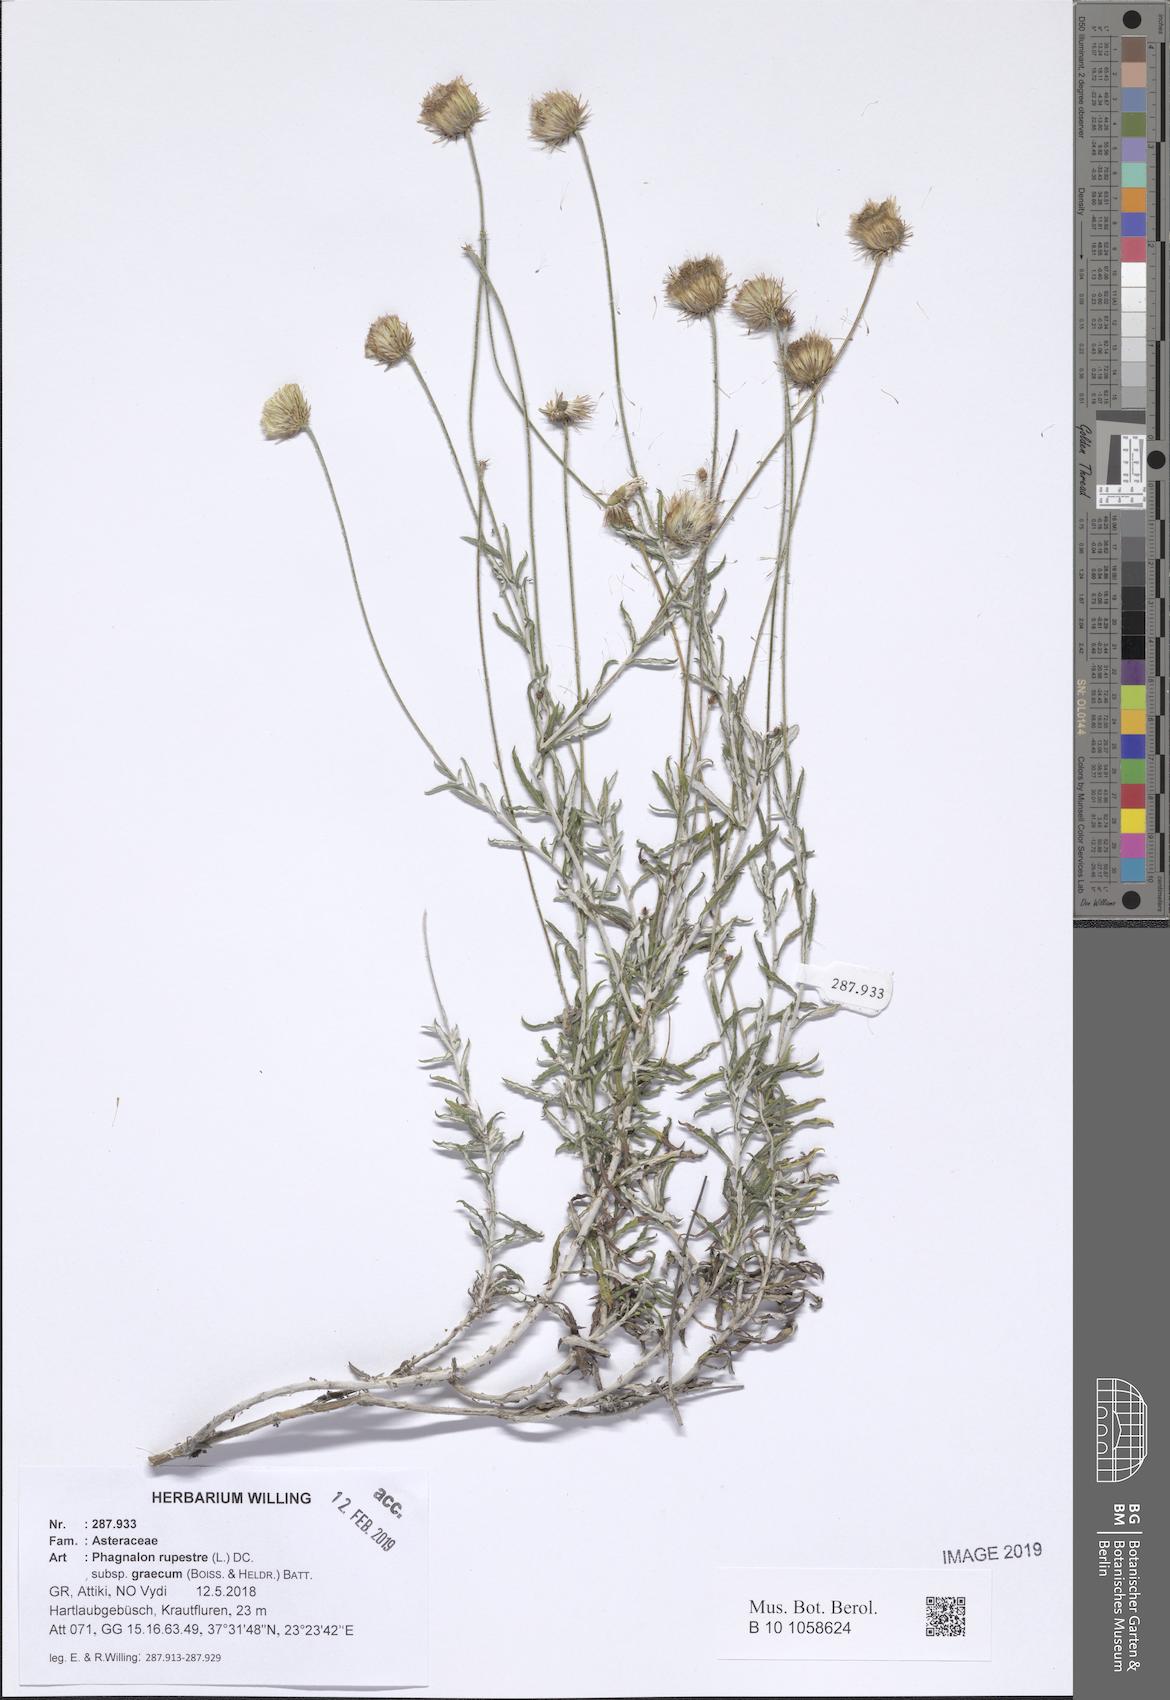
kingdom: Plantae
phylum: Tracheophyta
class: Magnoliopsida
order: Asterales
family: Asteraceae
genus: Phagnalon
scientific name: Phagnalon graecum
